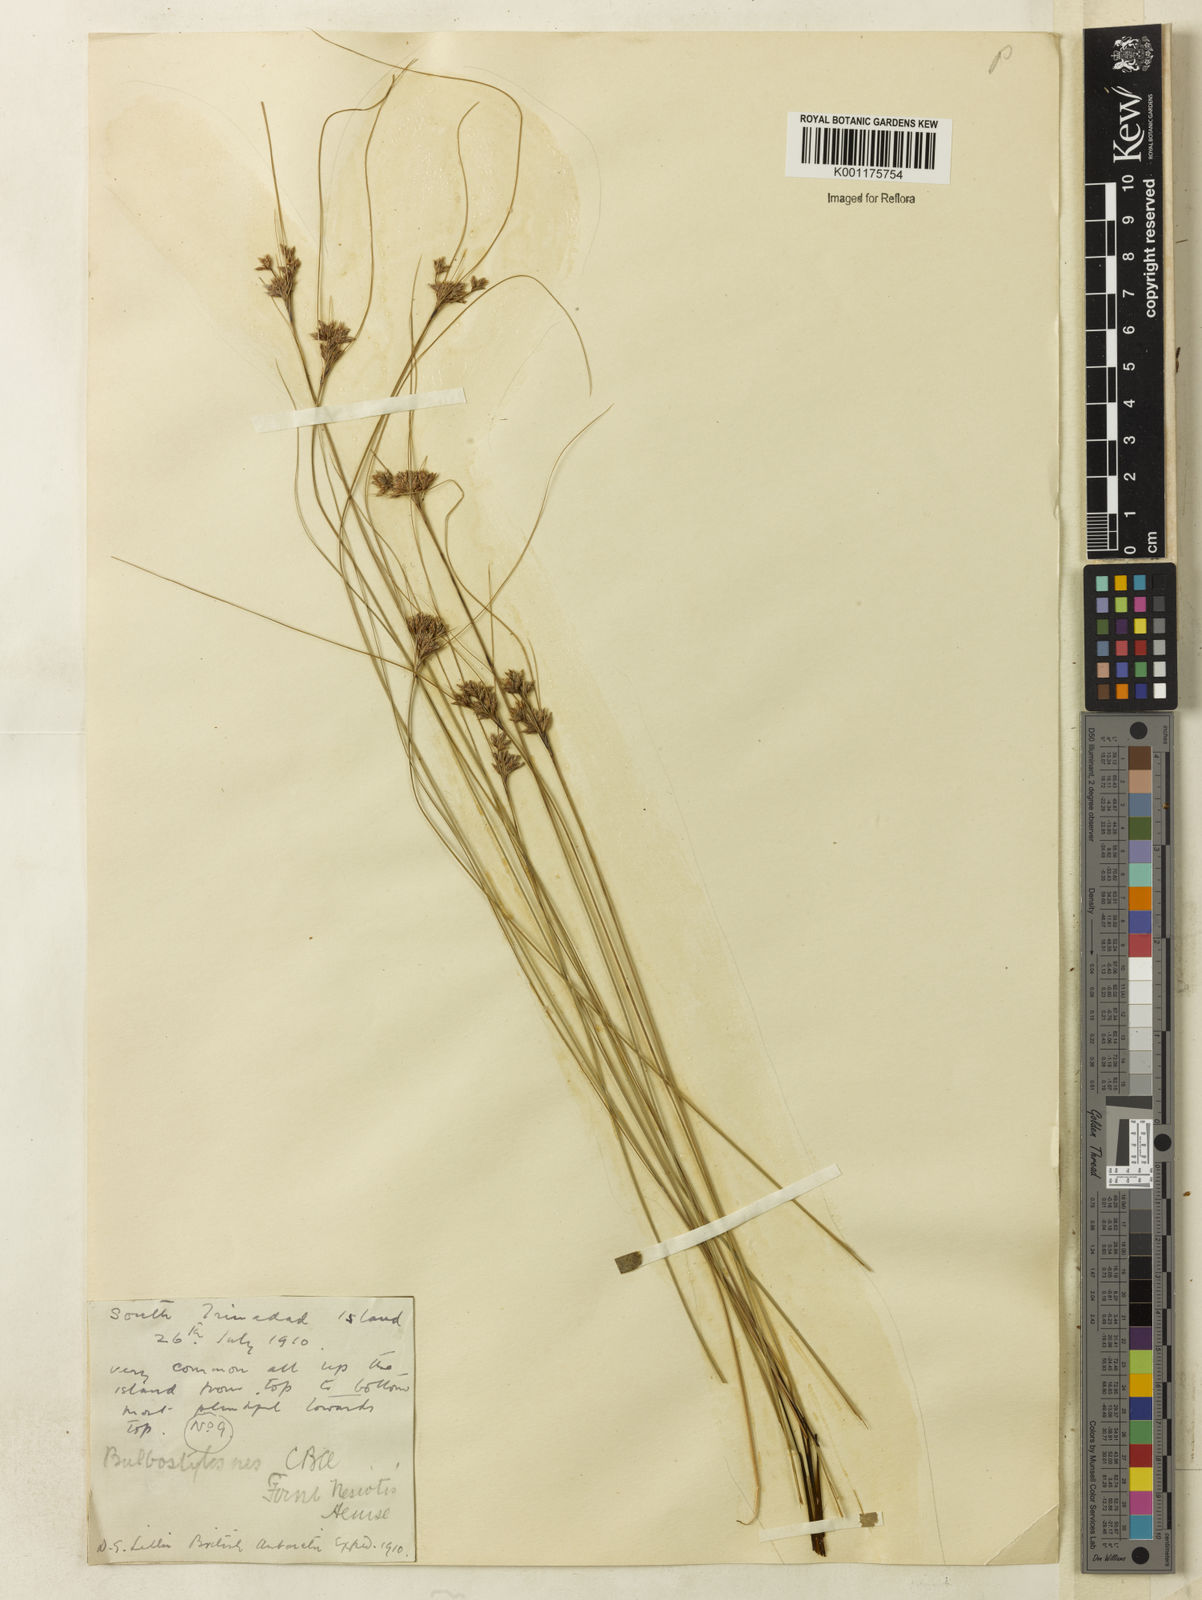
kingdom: Plantae
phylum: Tracheophyta
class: Liliopsida
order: Poales
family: Cyperaceae
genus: Bulbostylis
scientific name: Bulbostylis nesiotis
